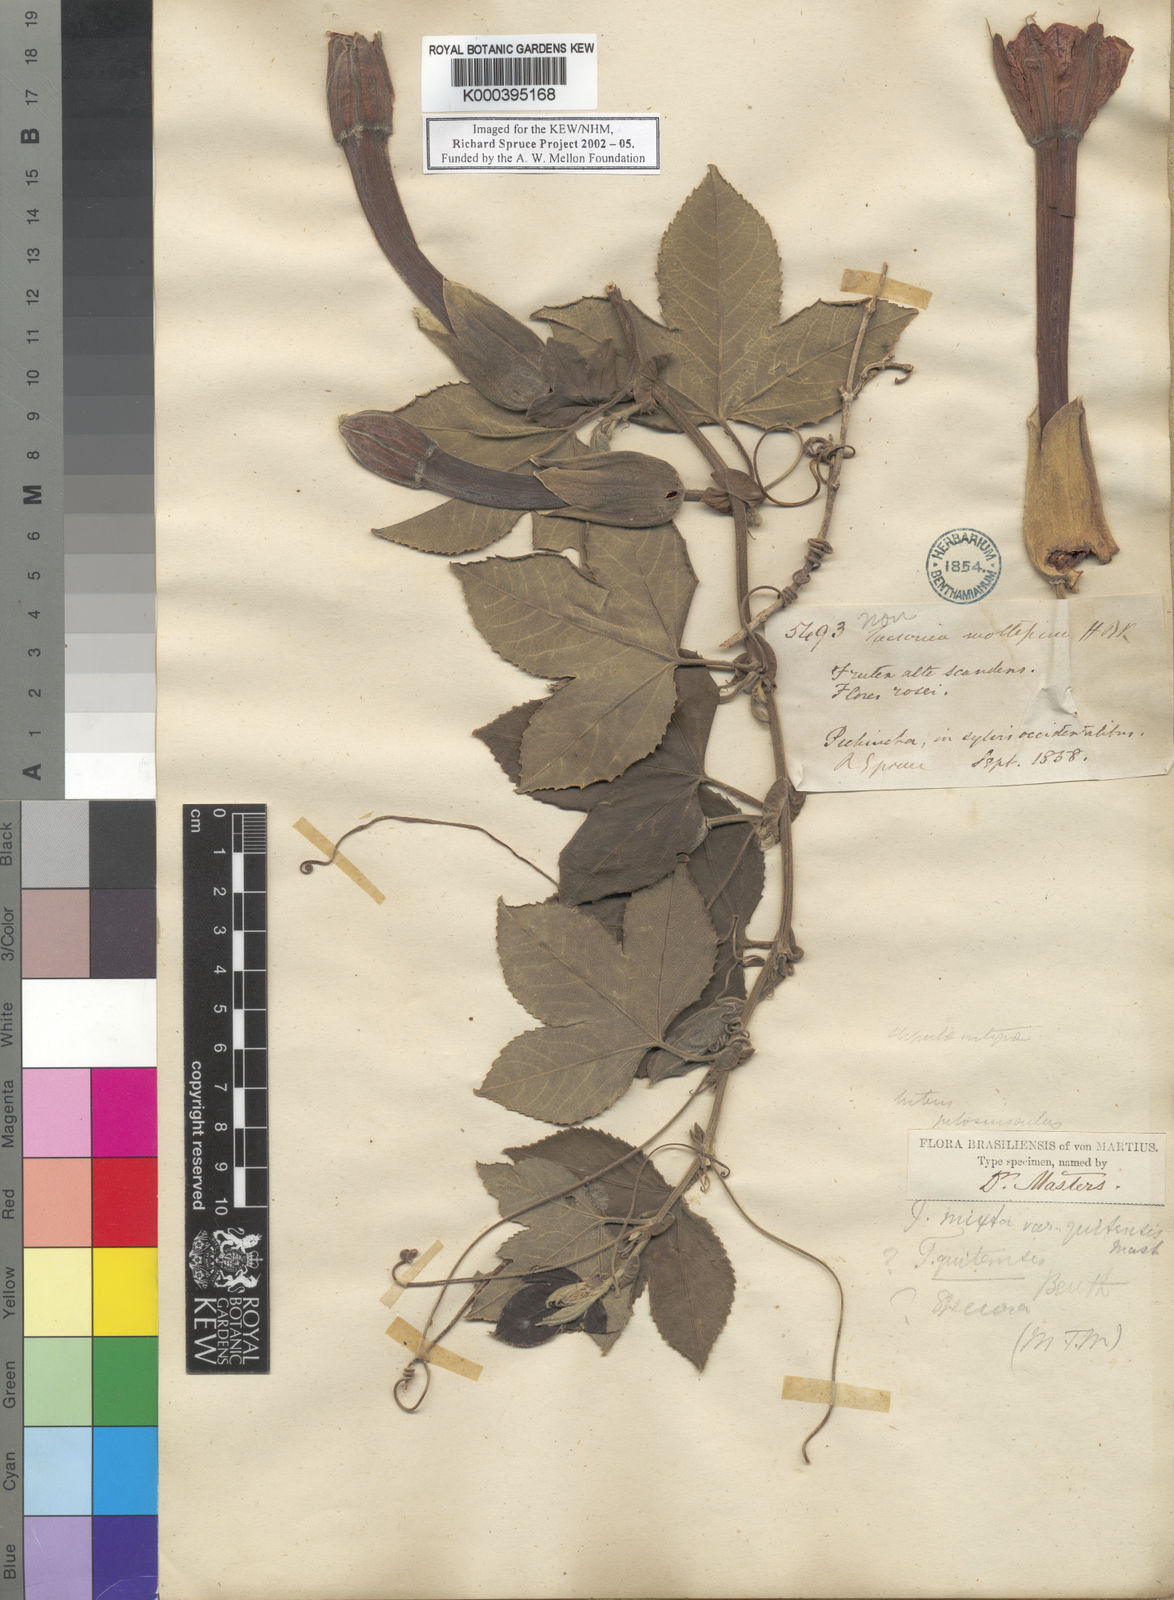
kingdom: Plantae
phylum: Tracheophyta
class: Magnoliopsida
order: Malpighiales
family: Passifloraceae
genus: Passiflora
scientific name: Passiflora mixta
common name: Passion flower
